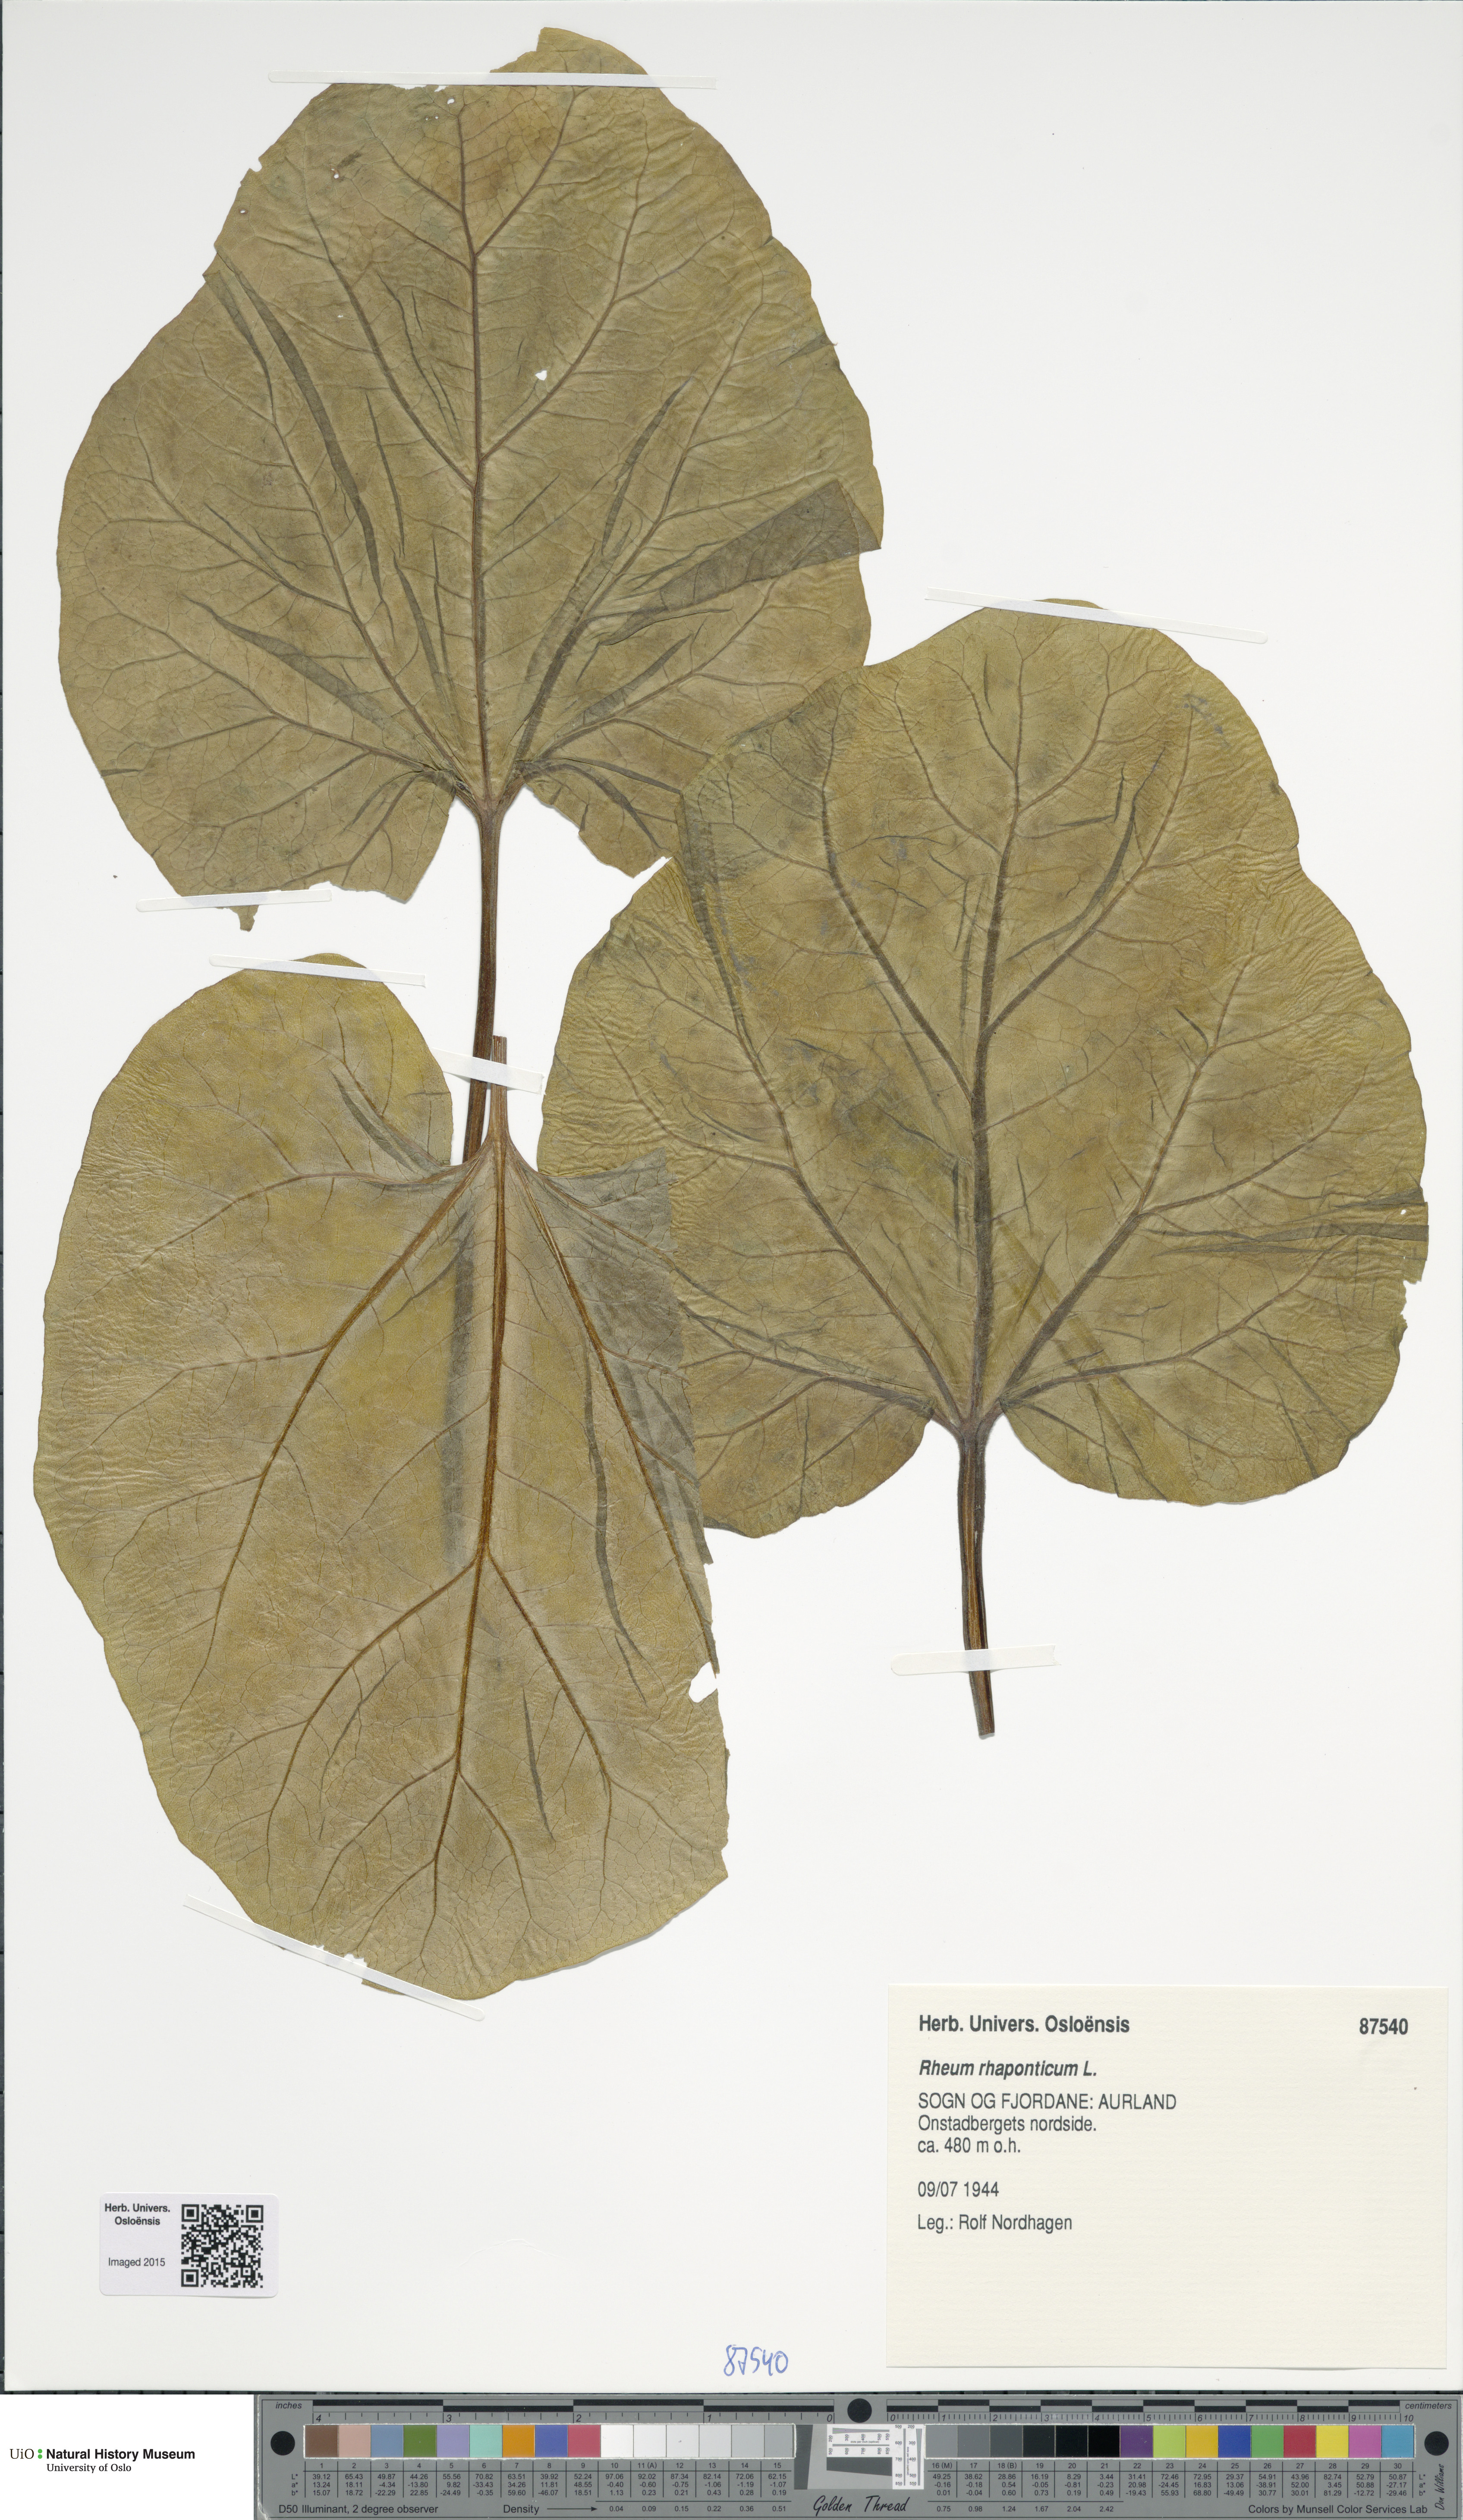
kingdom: Plantae
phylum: Tracheophyta
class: Magnoliopsida
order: Caryophyllales
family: Polygonaceae
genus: Rheum
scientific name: Rheum rhaponticum
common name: Rhubarb
